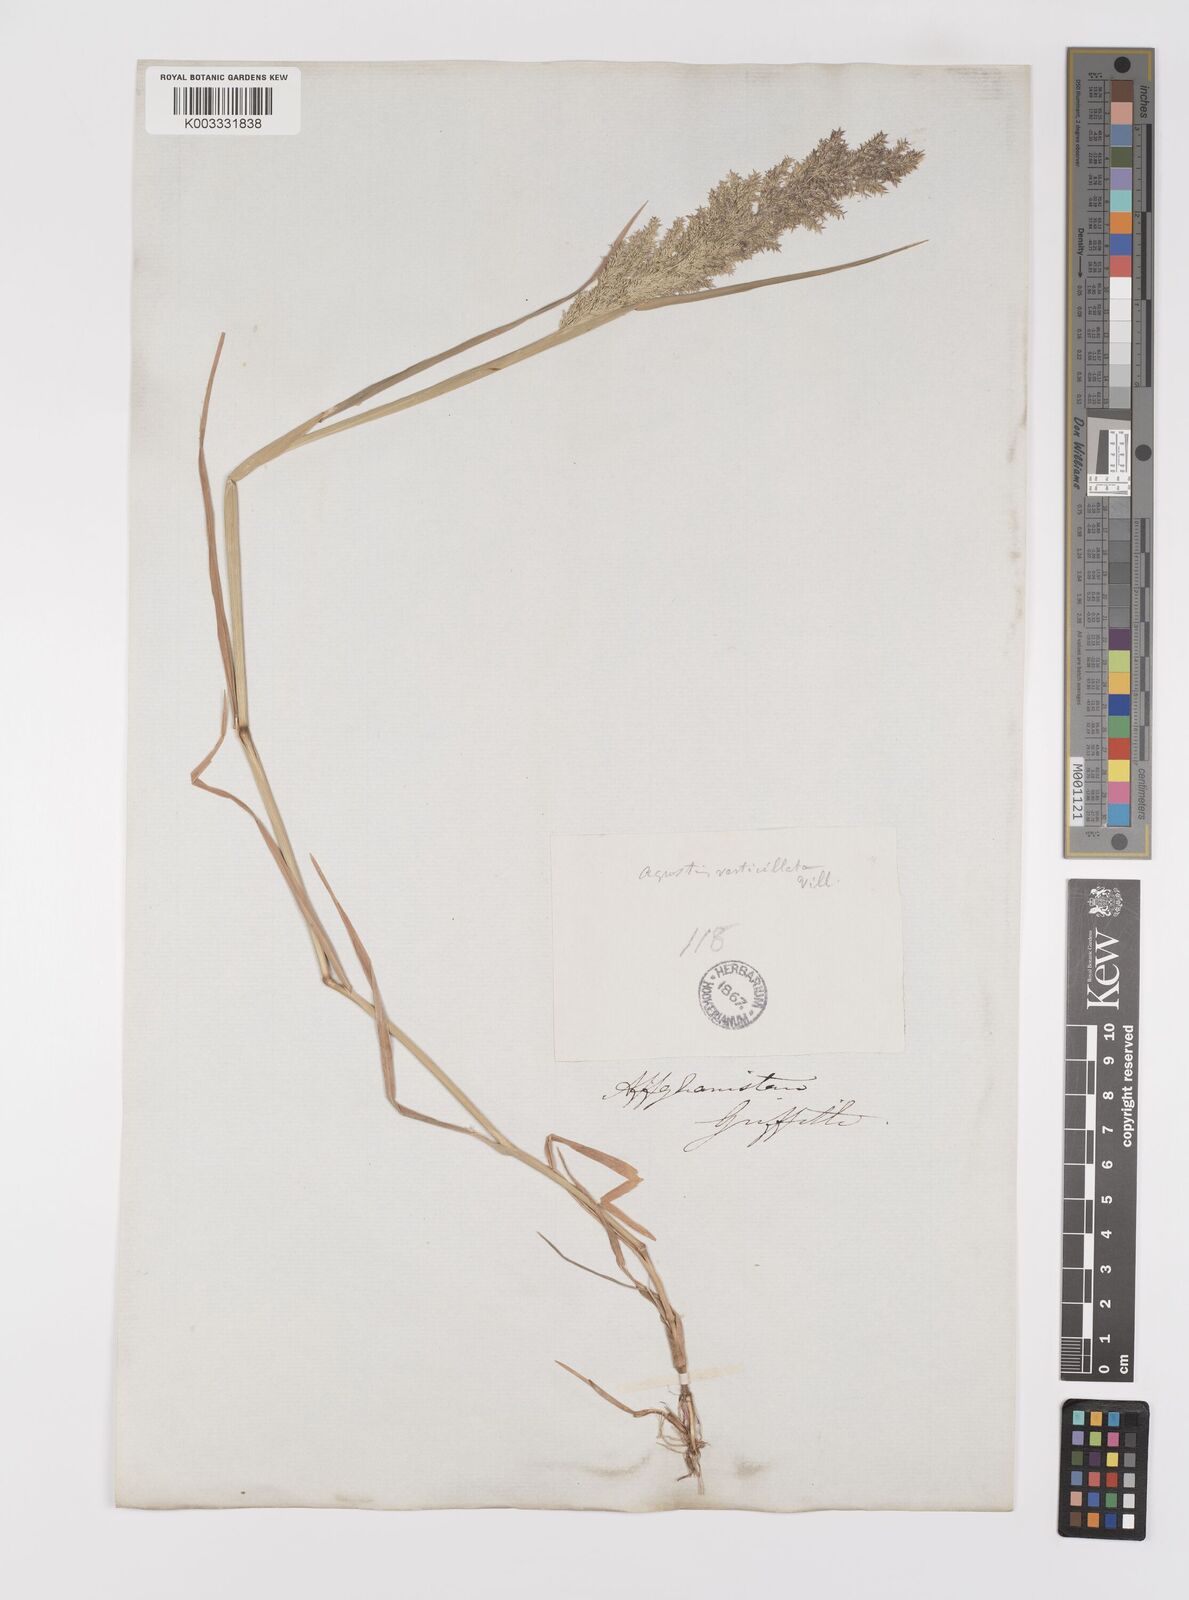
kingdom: Plantae
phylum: Tracheophyta
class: Liliopsida
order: Poales
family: Poaceae
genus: Polypogon
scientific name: Polypogon viridis
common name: Water bent
